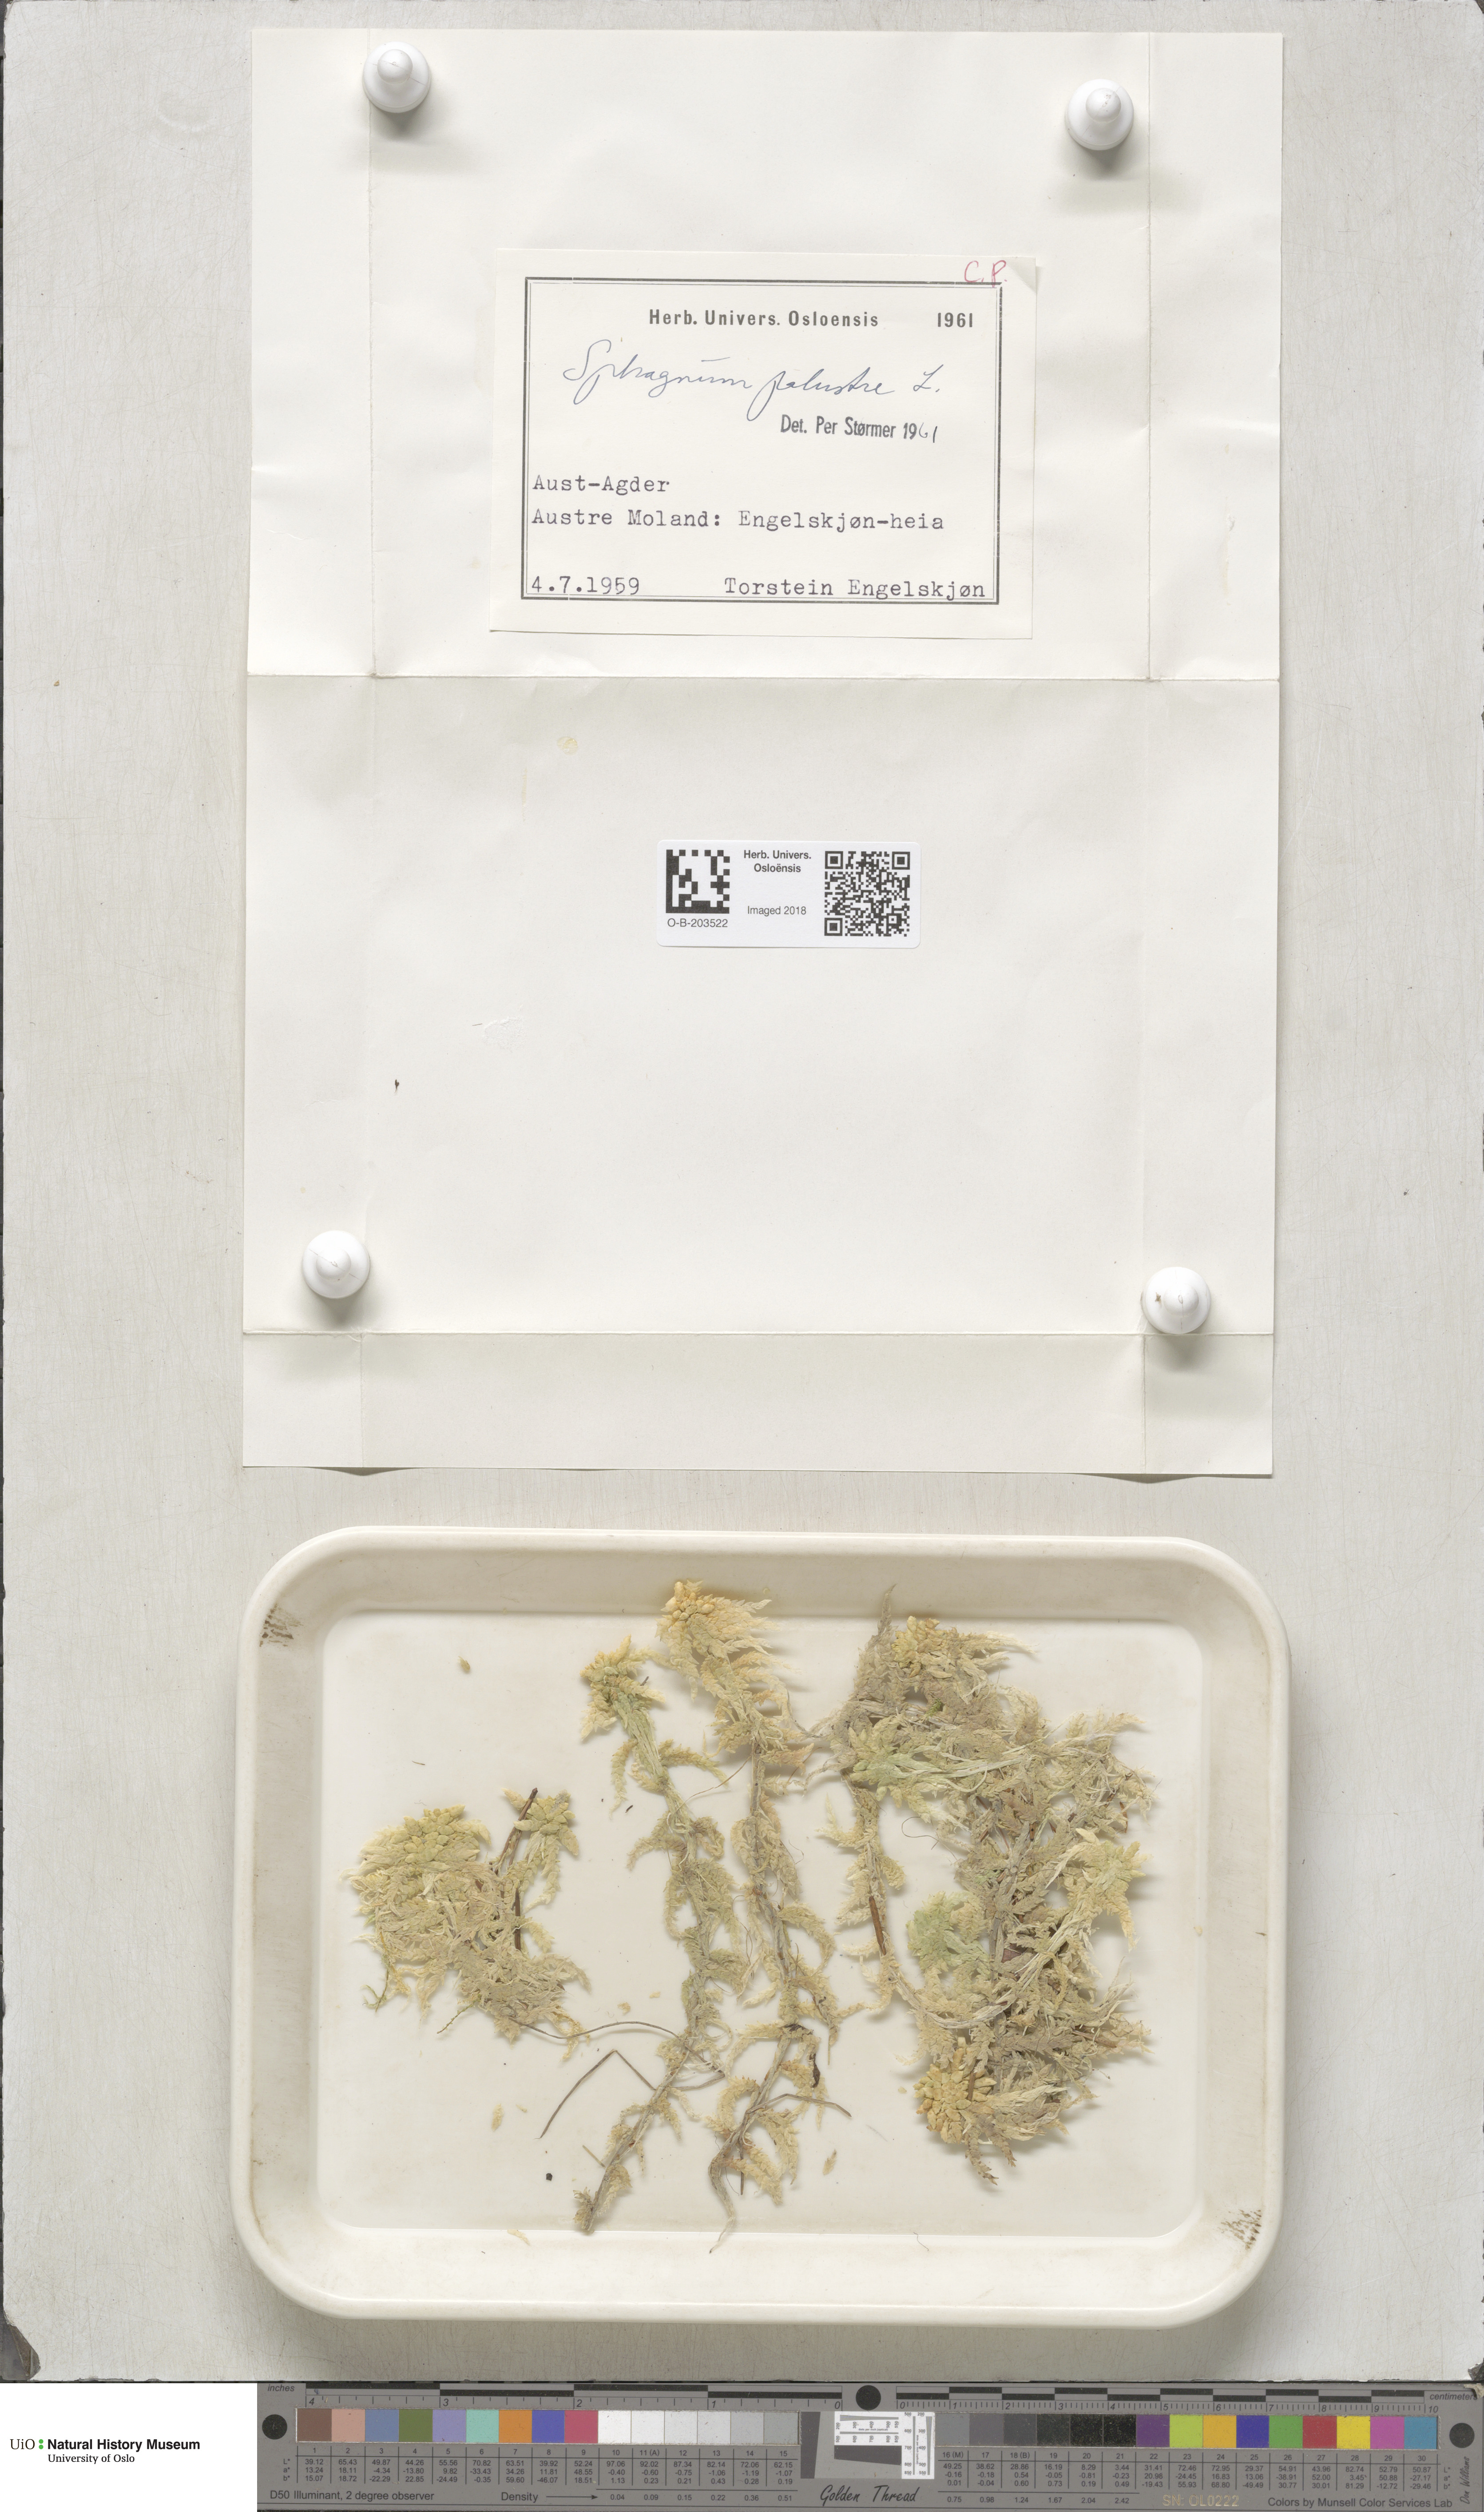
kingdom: Plantae
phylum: Bryophyta
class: Sphagnopsida
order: Sphagnales
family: Sphagnaceae
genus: Sphagnum
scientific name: Sphagnum palustre
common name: Blunt-leaved bog-moss
